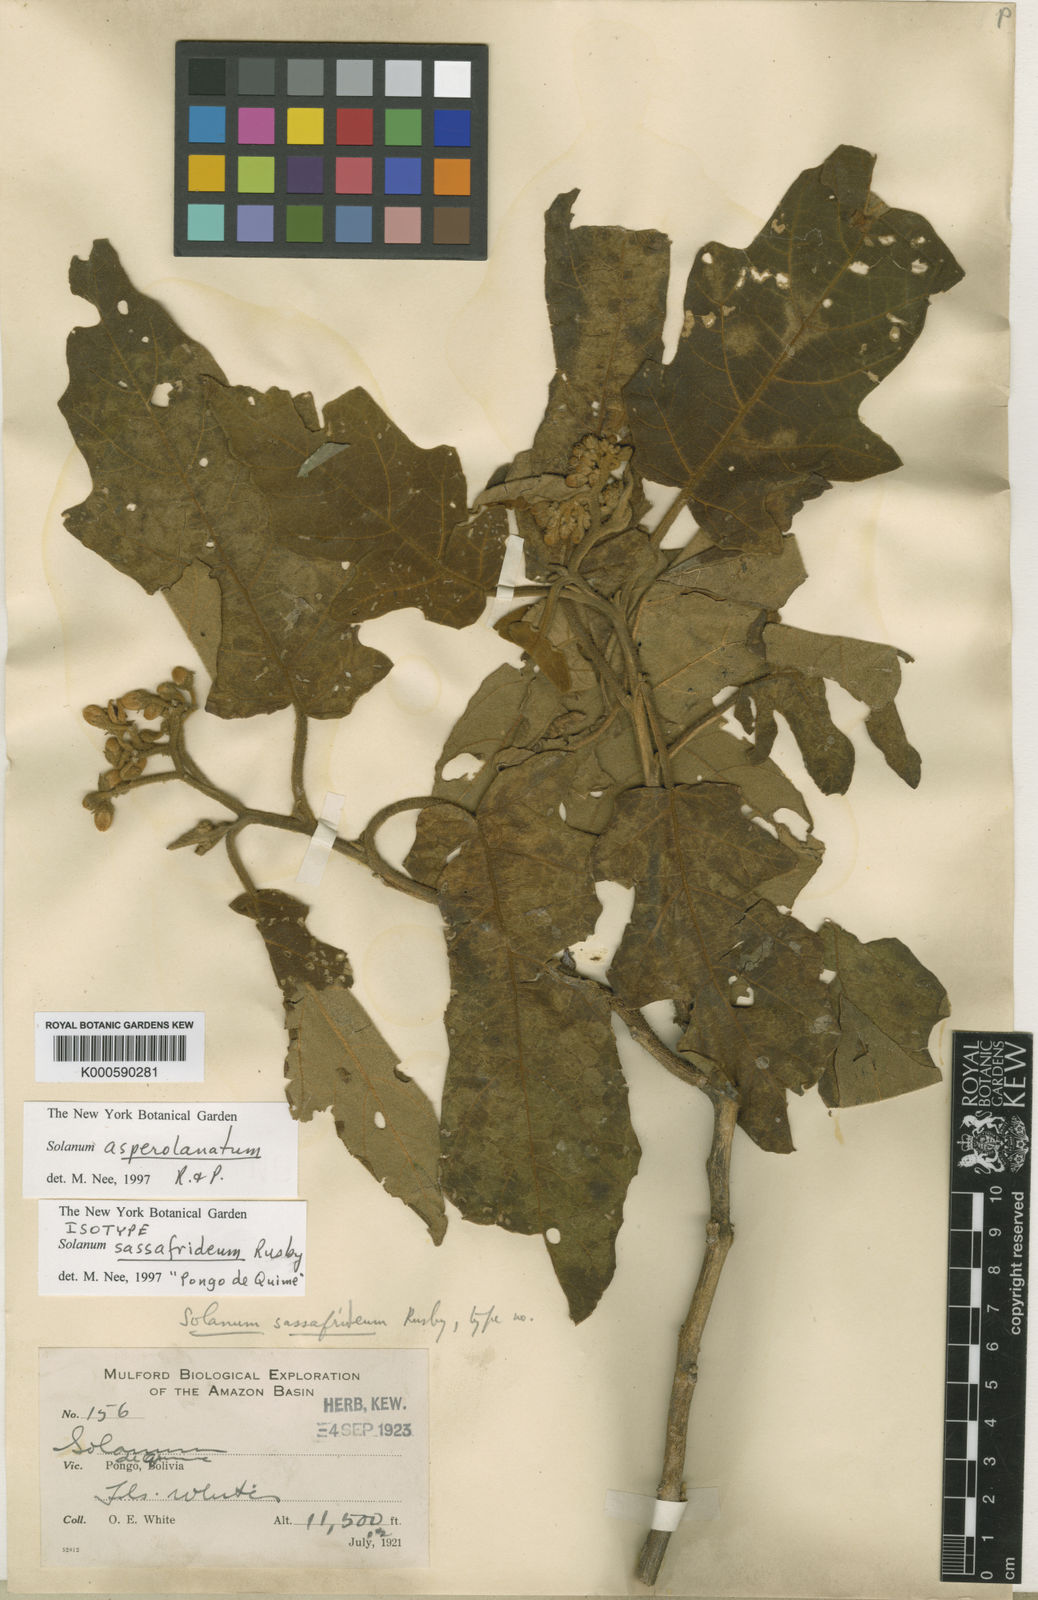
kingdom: Plantae
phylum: Tracheophyta
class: Magnoliopsida
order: Solanales
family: Solanaceae
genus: Solanum
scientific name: Solanum asperolanatum
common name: Devil's-fig
